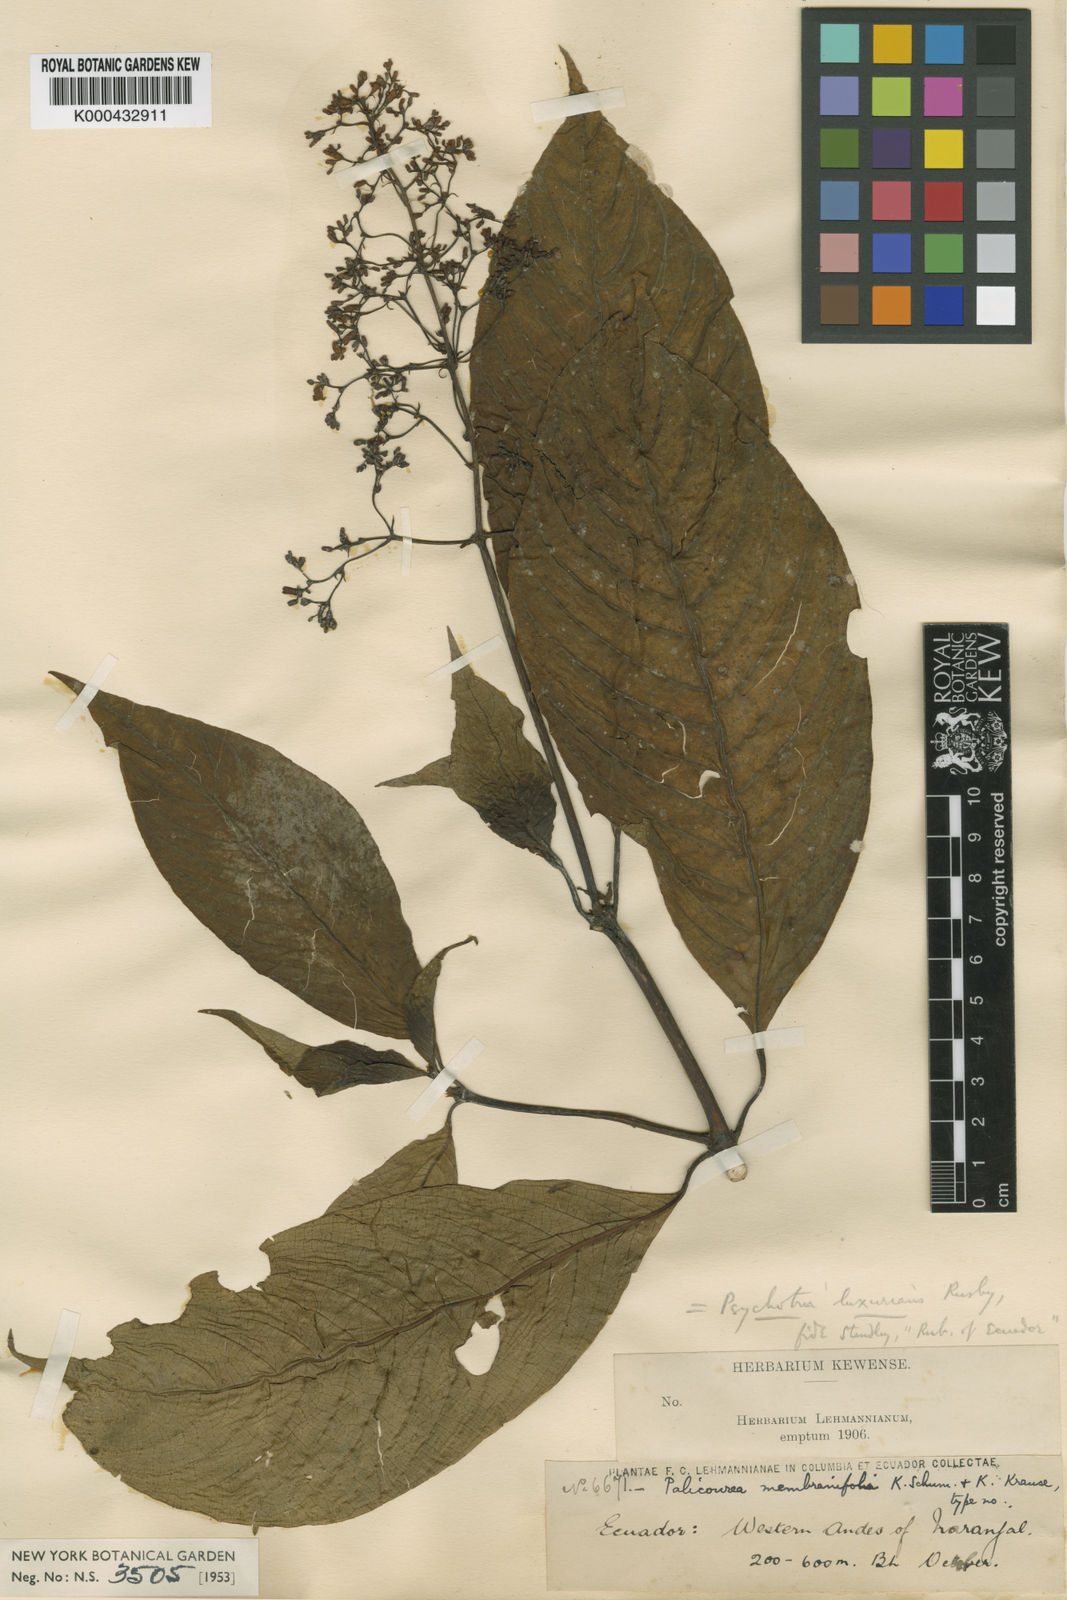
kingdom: Plantae
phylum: Tracheophyta
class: Magnoliopsida
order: Gentianales
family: Rubiaceae
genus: Palicourea
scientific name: Palicourea luxurians
